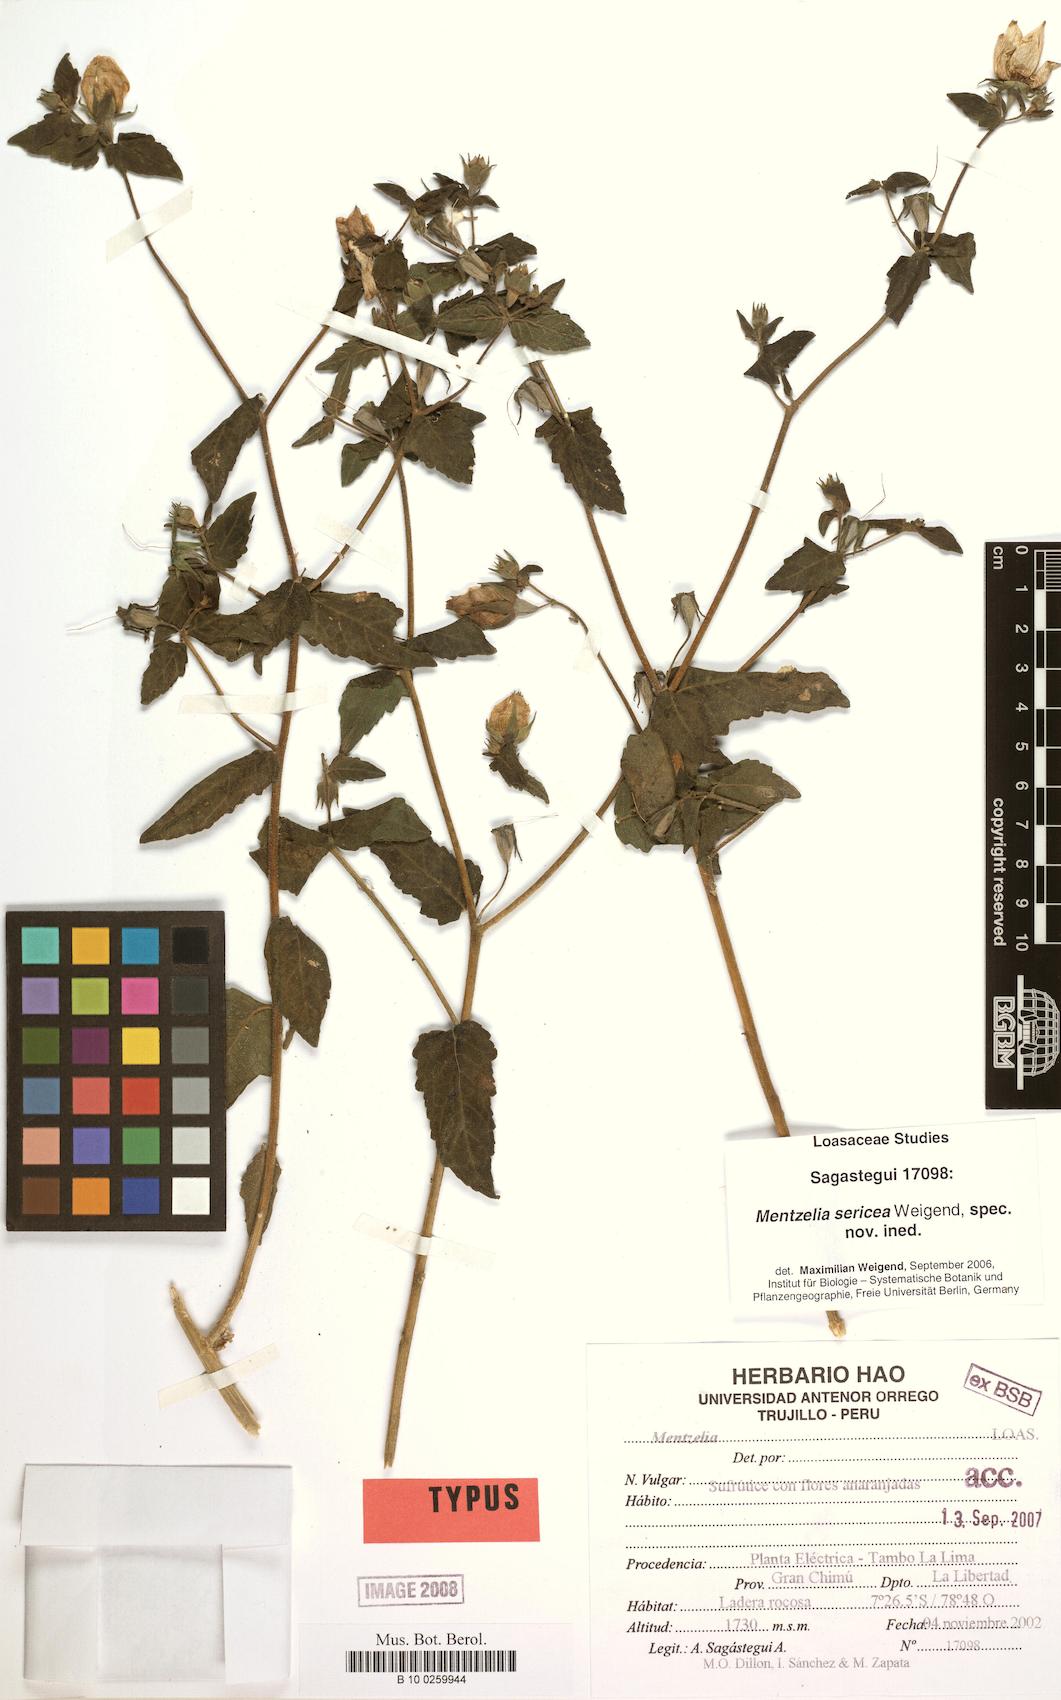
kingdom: Plantae
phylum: Tracheophyta
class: Magnoliopsida
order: Cornales
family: Loasaceae
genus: Mentzelia
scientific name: Mentzelia sericea
